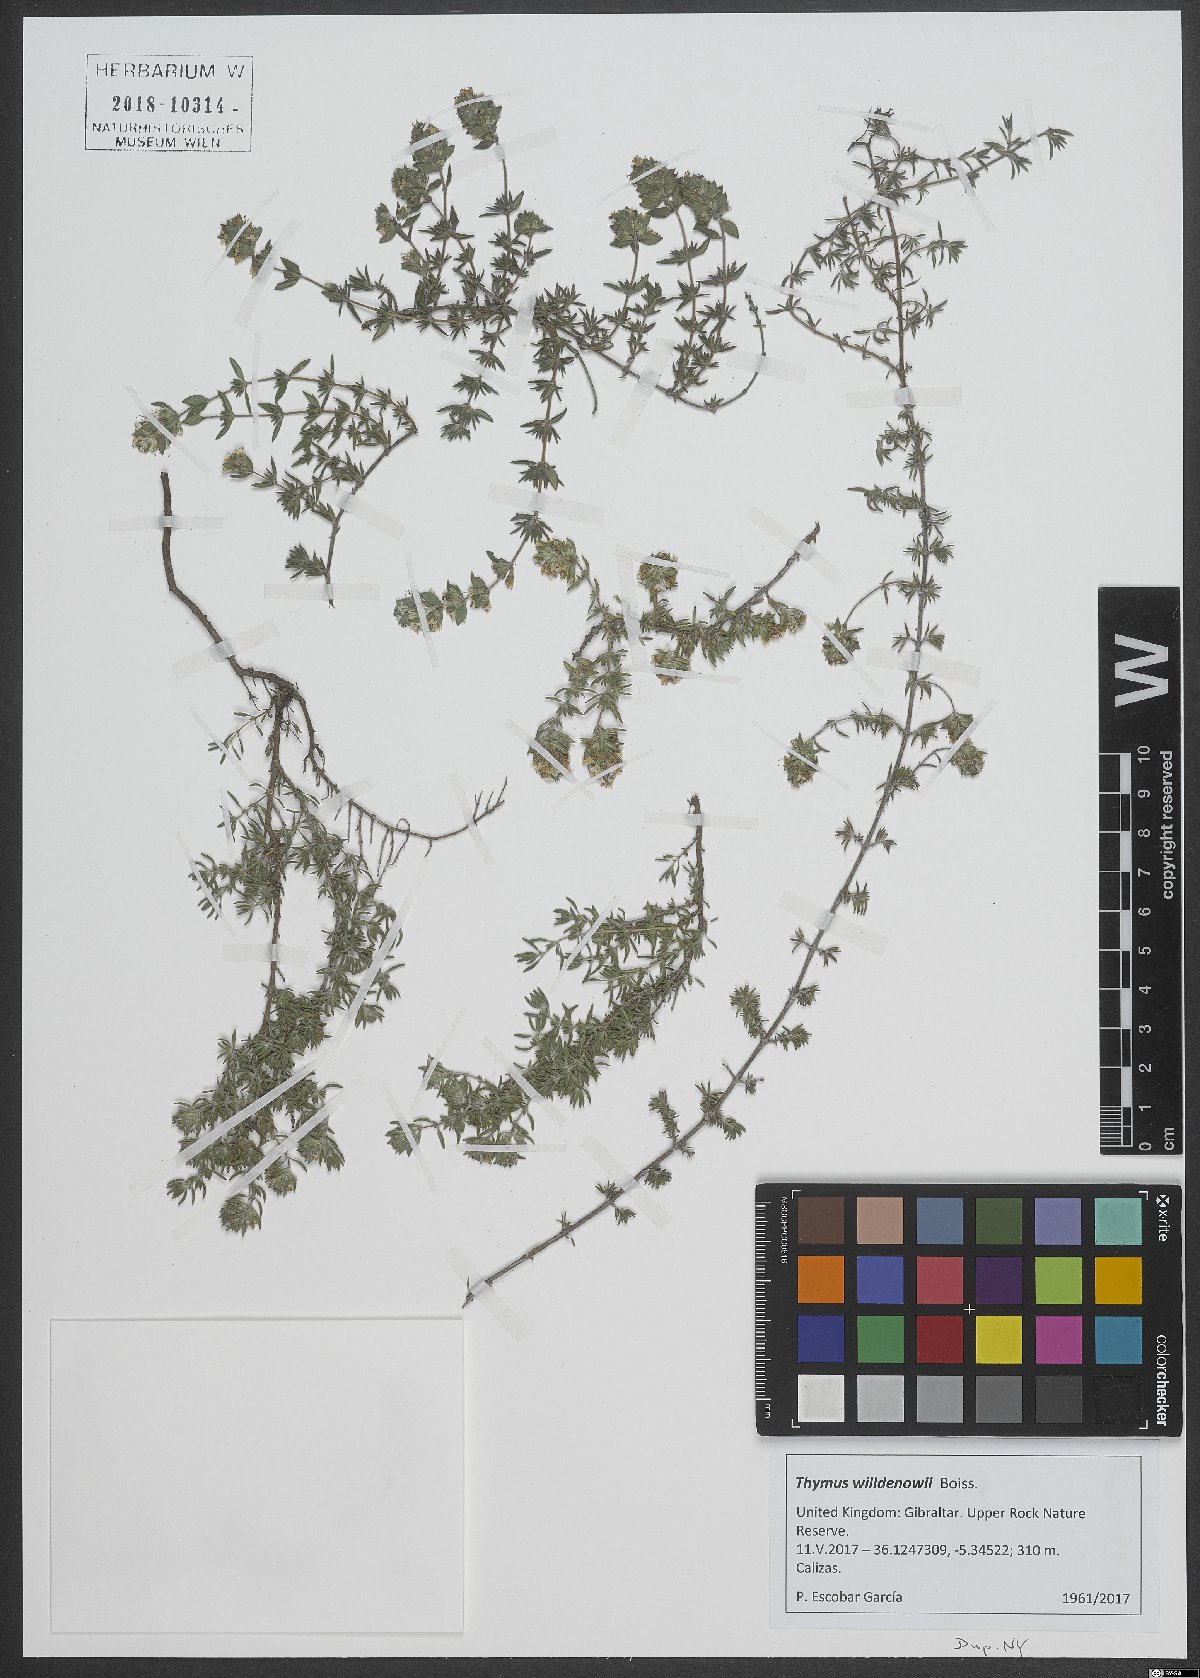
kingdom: Plantae
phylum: Tracheophyta
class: Magnoliopsida
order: Lamiales
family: Lamiaceae
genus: Thymus
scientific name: Thymus willdenowii
